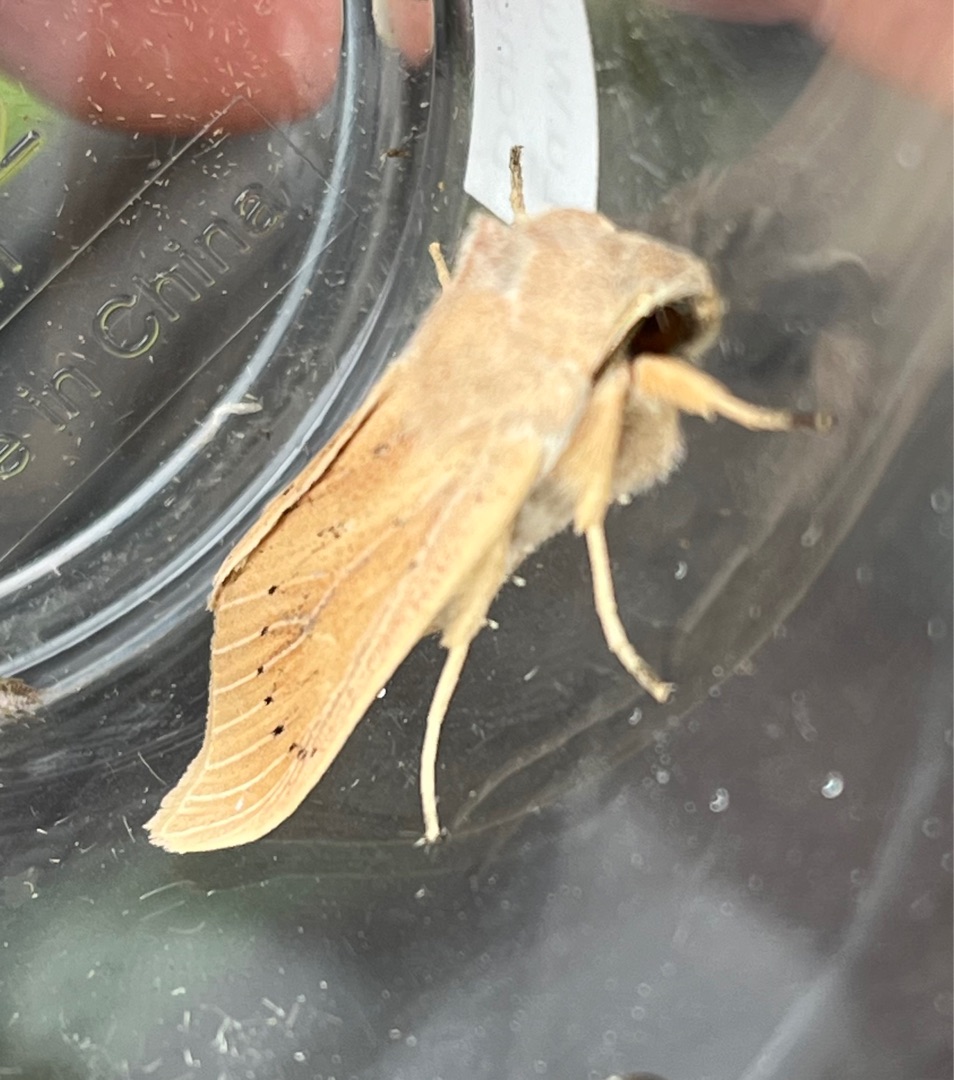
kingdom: Animalia
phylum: Arthropoda
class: Insecta
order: Lepidoptera
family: Noctuidae
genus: Rhizedra
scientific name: Rhizedra lutosa
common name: Stor sivugle
